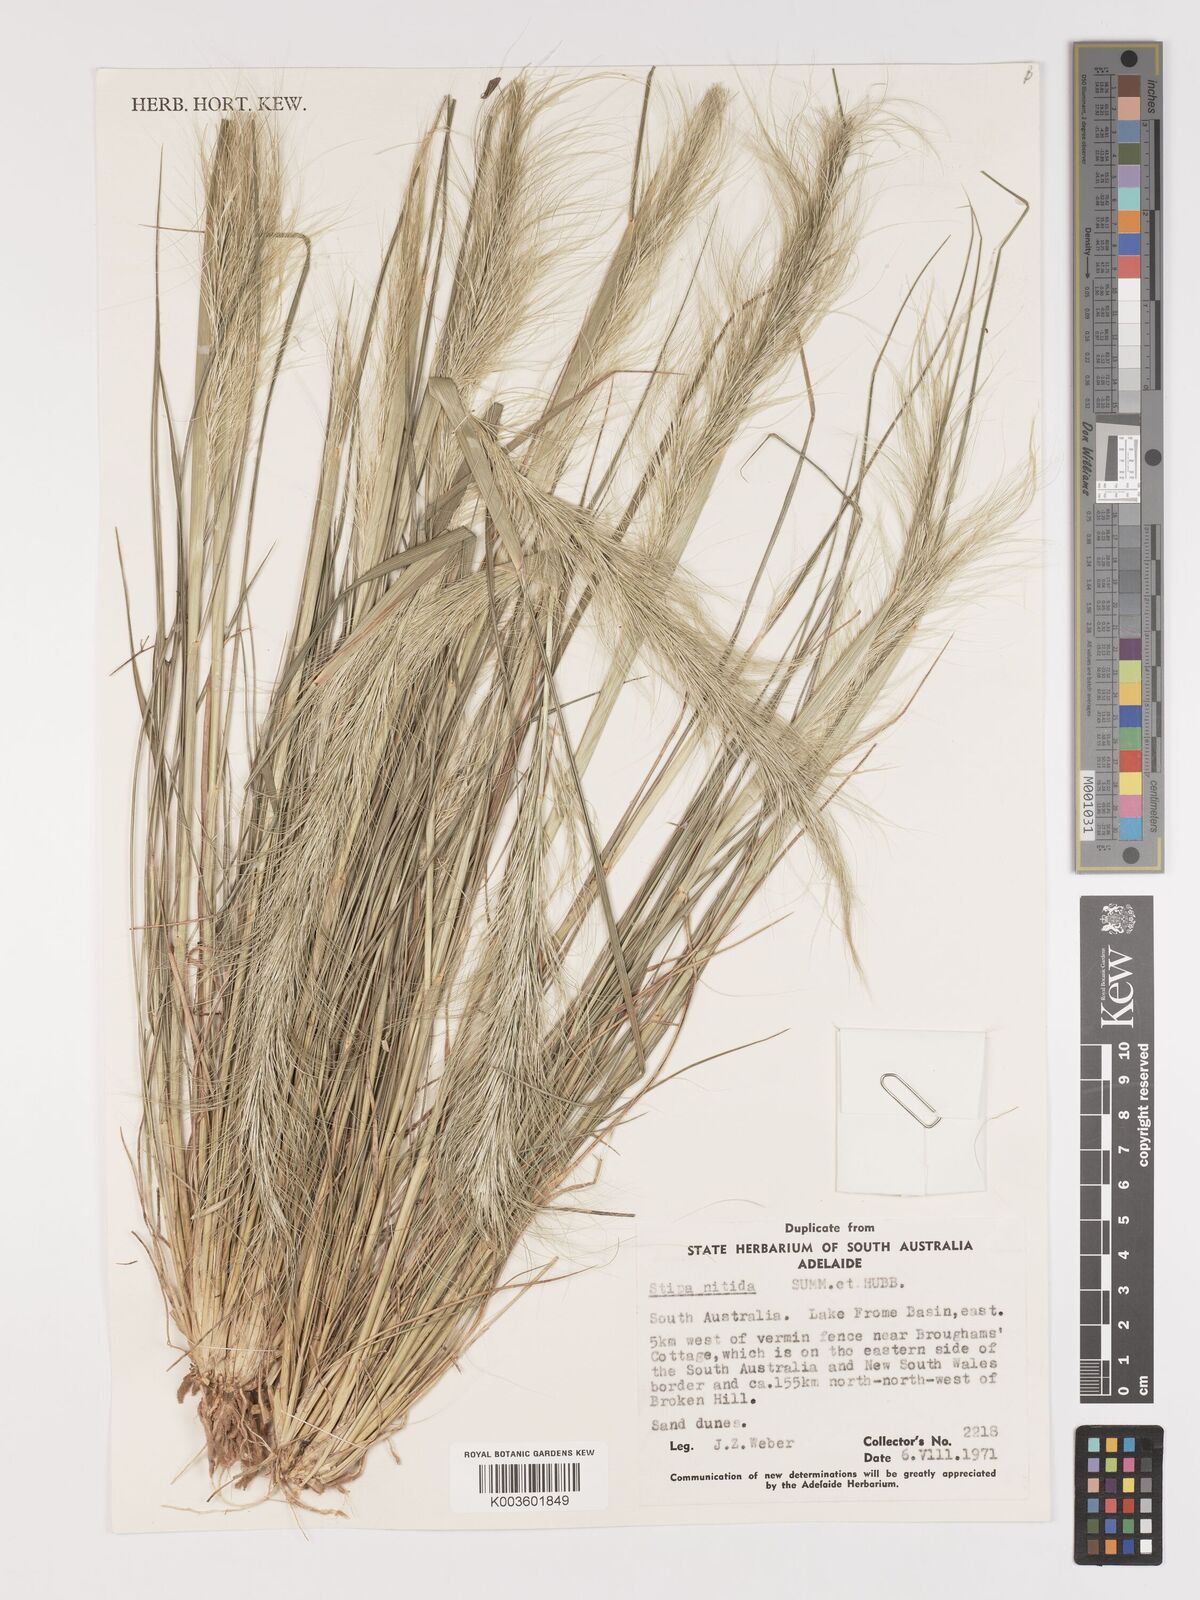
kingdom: Plantae
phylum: Tracheophyta
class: Liliopsida
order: Poales
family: Poaceae
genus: Austrostipa
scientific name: Austrostipa nitida
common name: Balcarra grass
